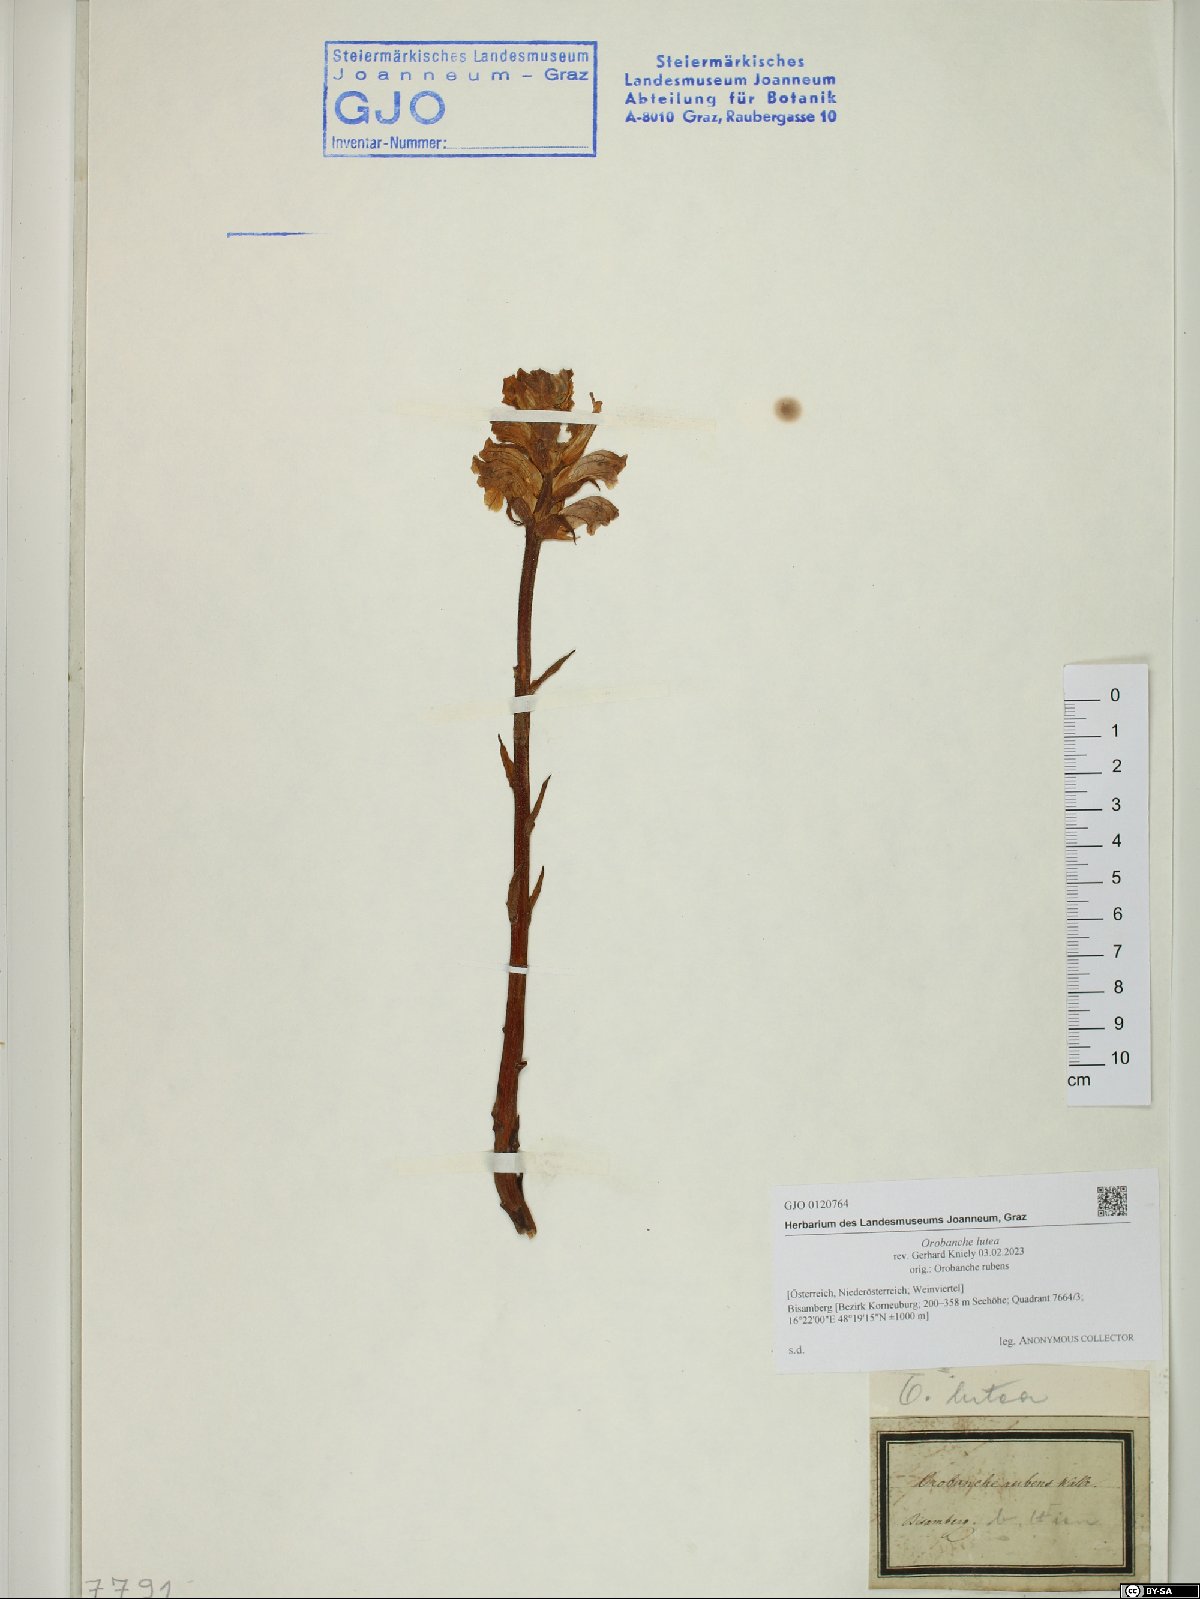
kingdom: Plantae
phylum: Tracheophyta
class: Magnoliopsida
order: Lamiales
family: Orobanchaceae
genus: Orobanche
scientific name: Orobanche lutea
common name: Yellow broomrape
